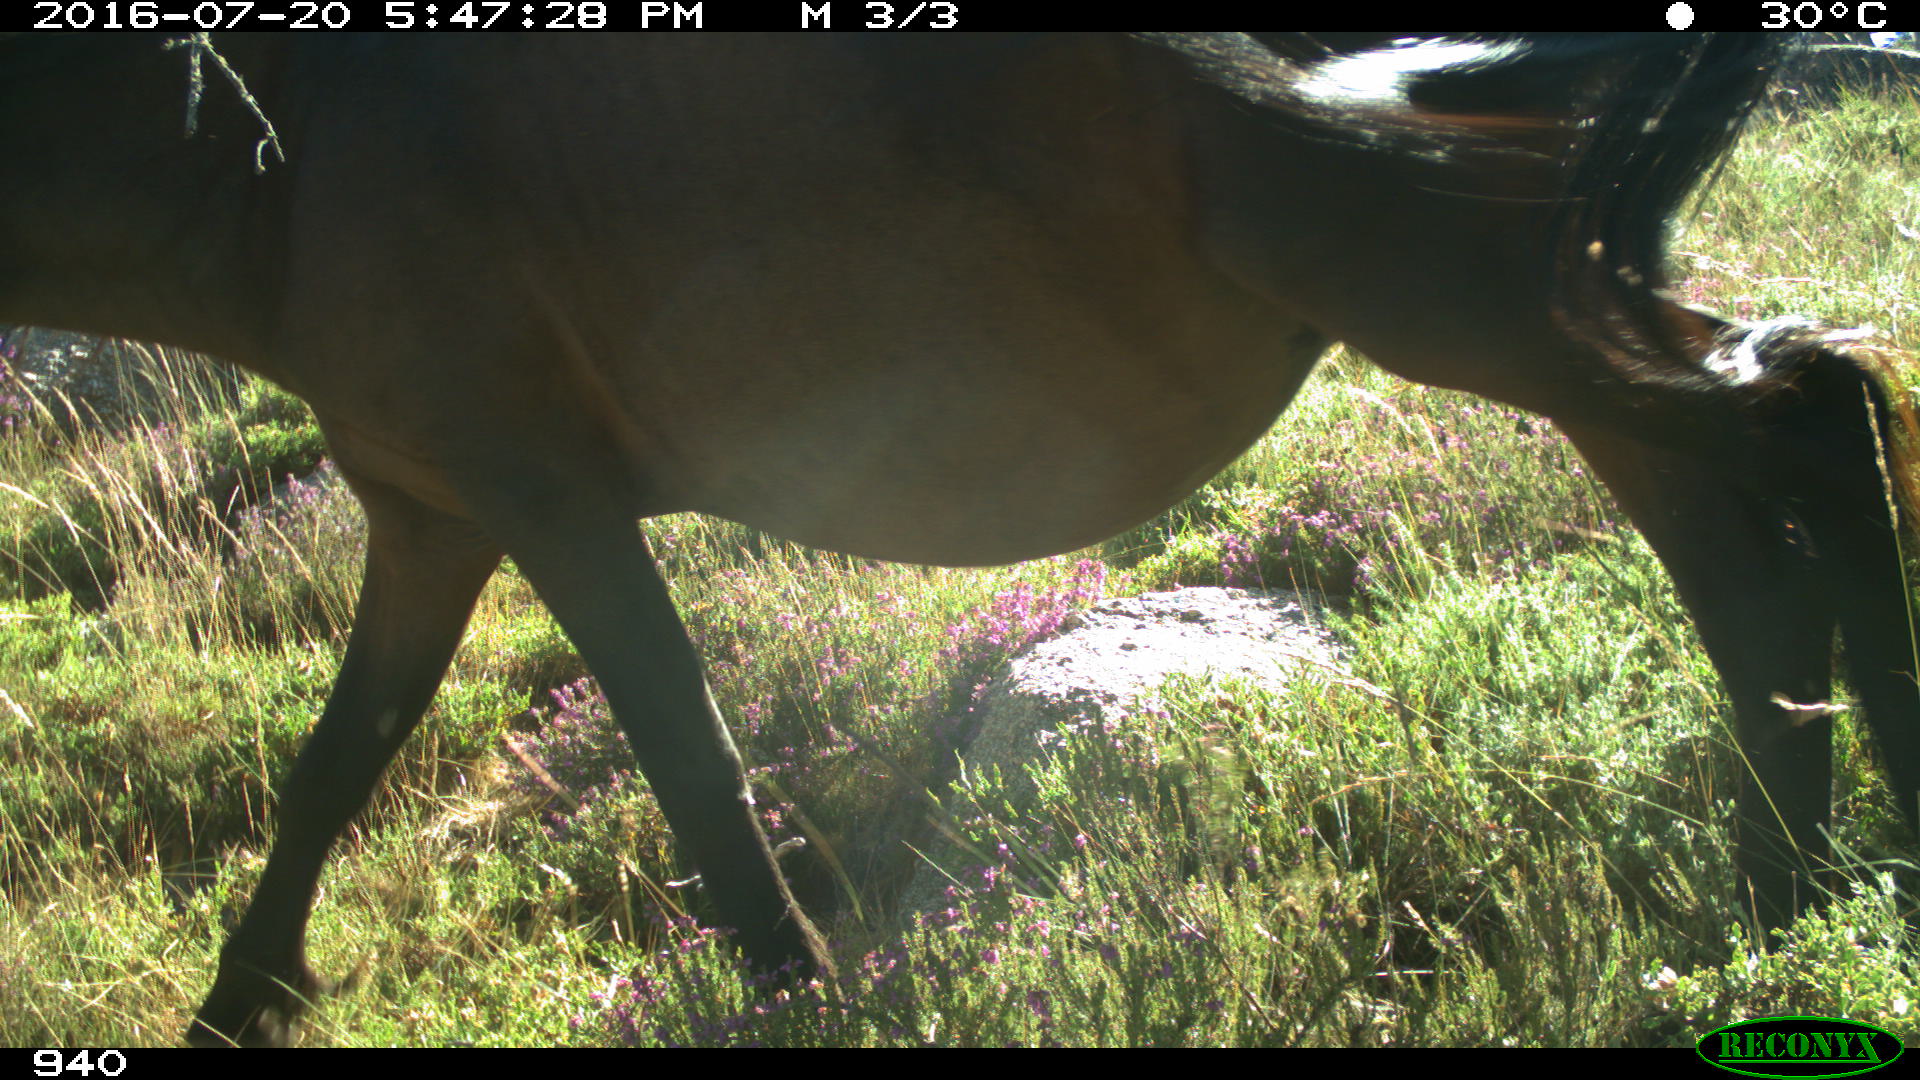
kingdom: Animalia
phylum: Chordata
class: Mammalia
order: Perissodactyla
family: Equidae
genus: Equus
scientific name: Equus caballus
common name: Horse
